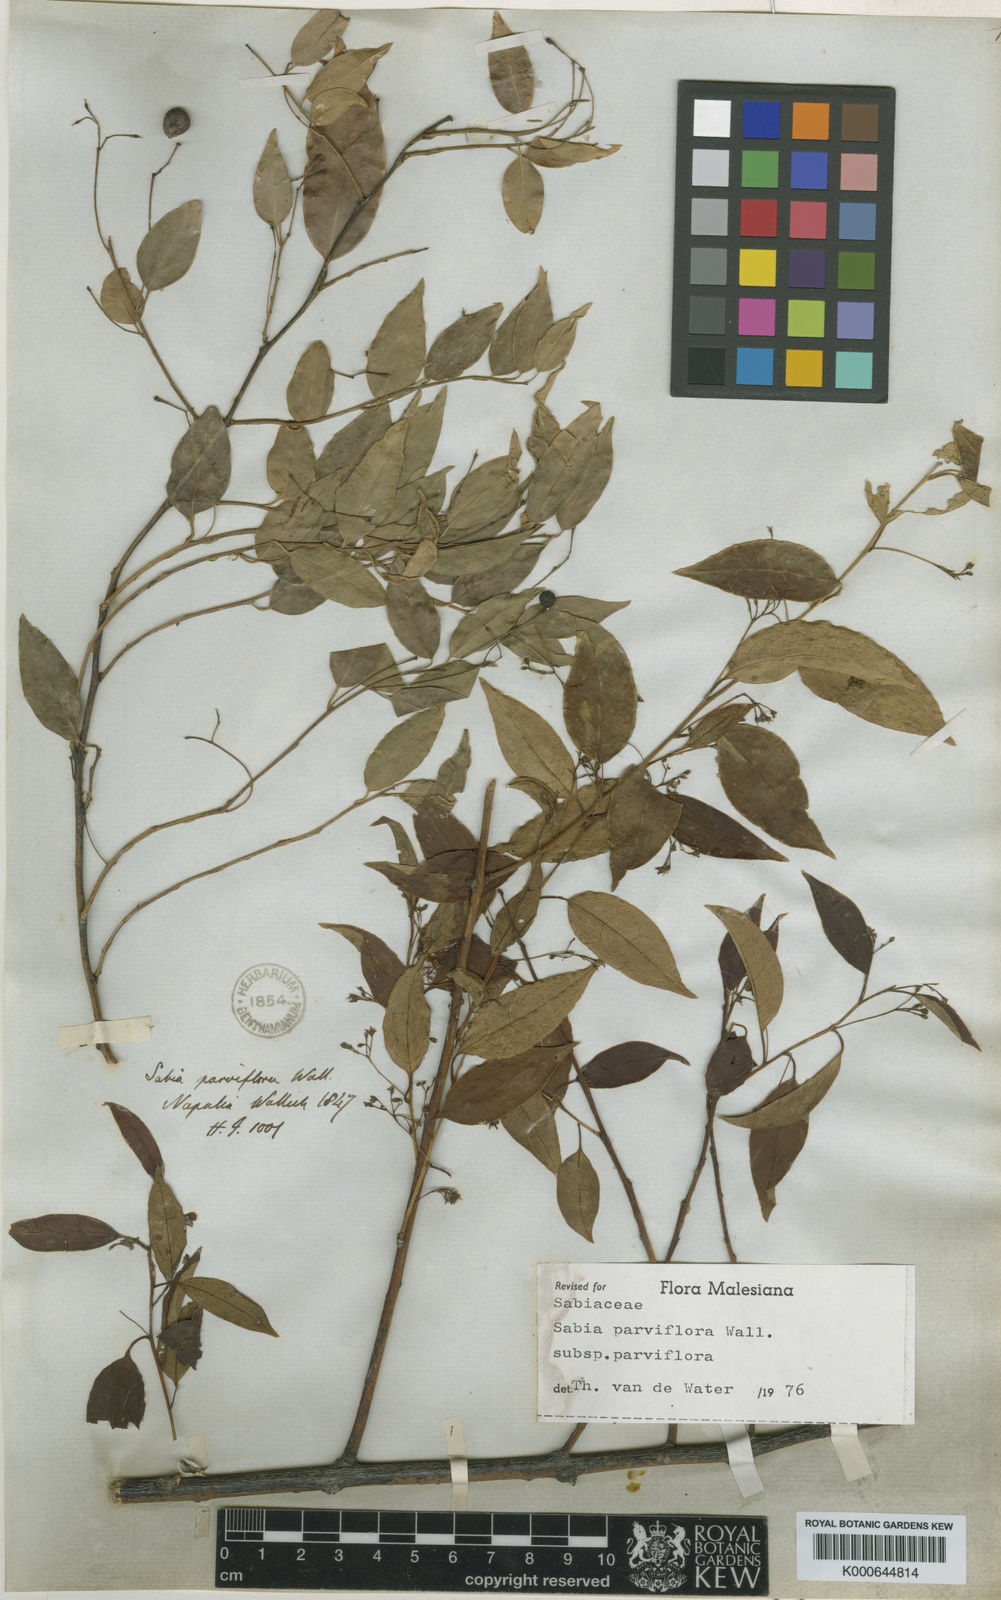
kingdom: Plantae
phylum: Tracheophyta
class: Magnoliopsida
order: Proteales
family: Sabiaceae
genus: Sabia
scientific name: Sabia parviflora
